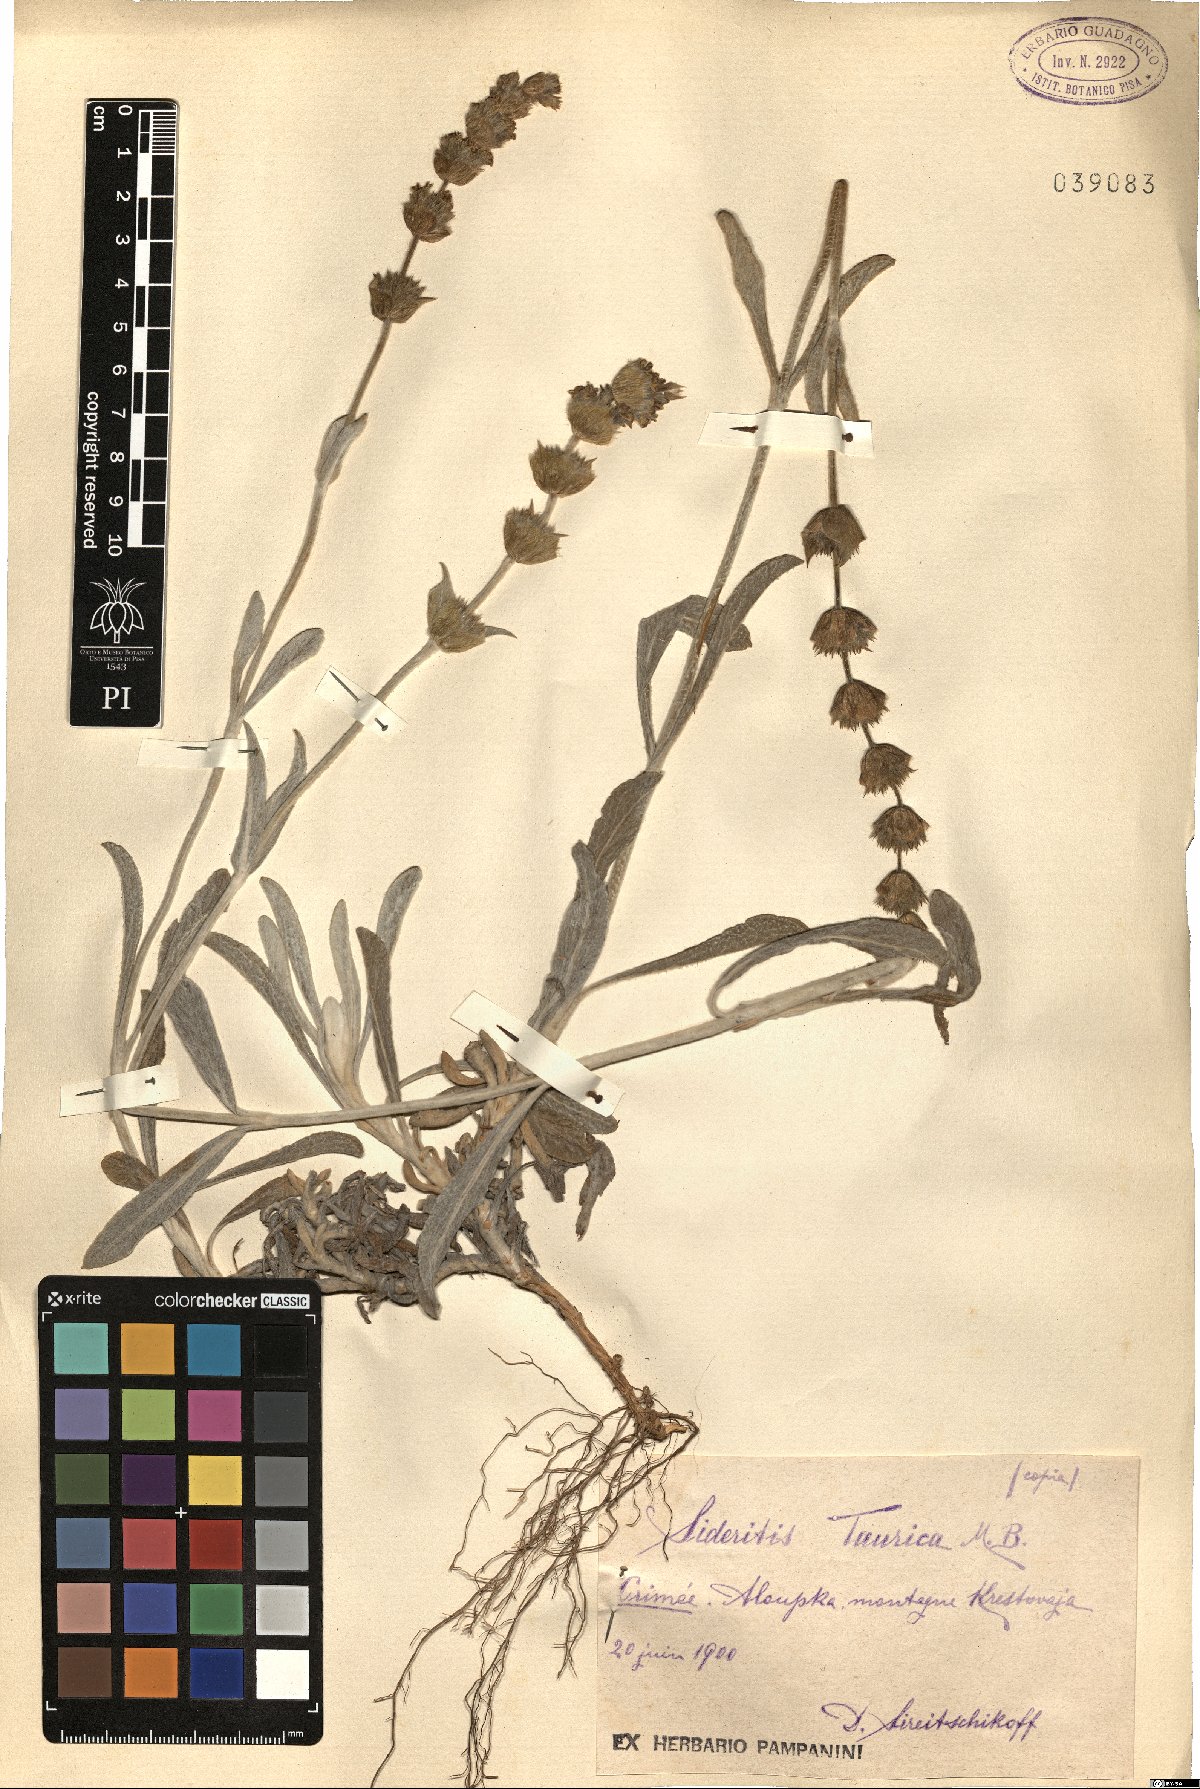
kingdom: Plantae
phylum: Tracheophyta
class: Magnoliopsida
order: Lamiales
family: Lamiaceae
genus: Sideritis
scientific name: Sideritis taurica
